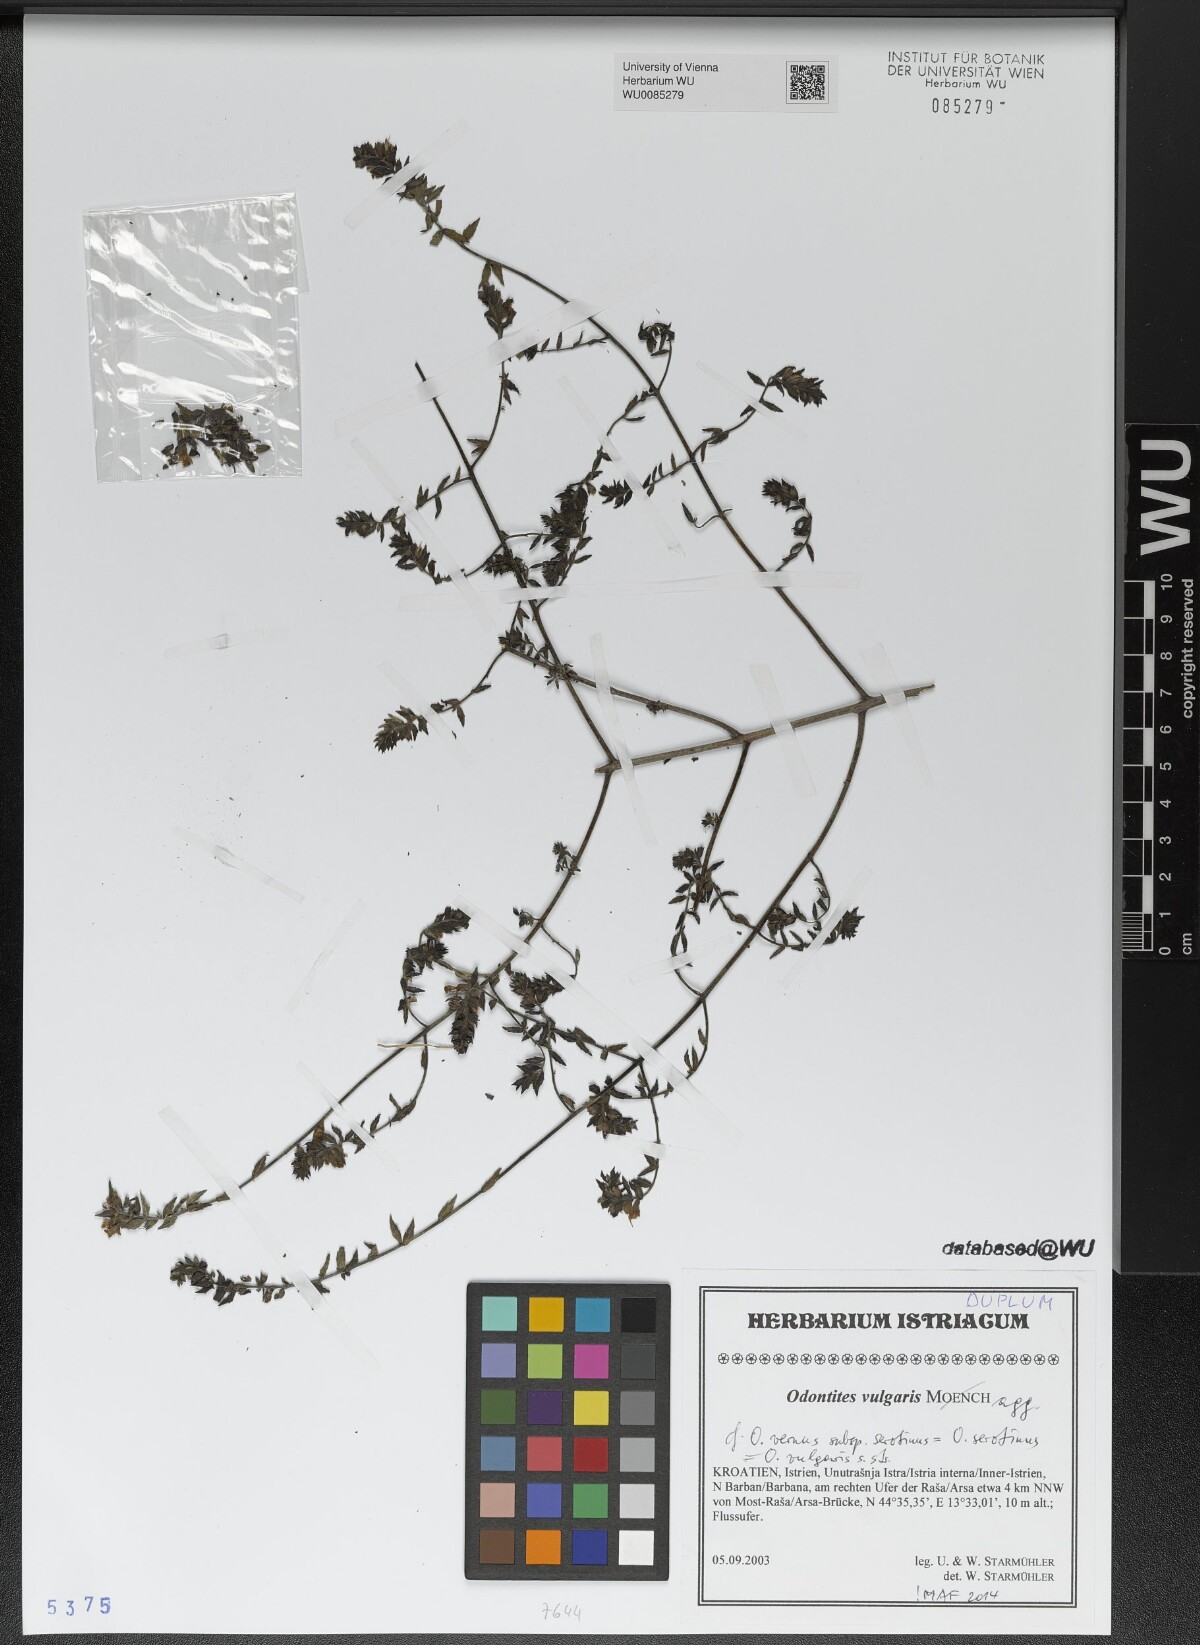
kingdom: Plantae
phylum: Tracheophyta
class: Magnoliopsida
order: Lamiales
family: Orobanchaceae
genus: Odontites
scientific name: Odontites vulgaris
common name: Broomrape
